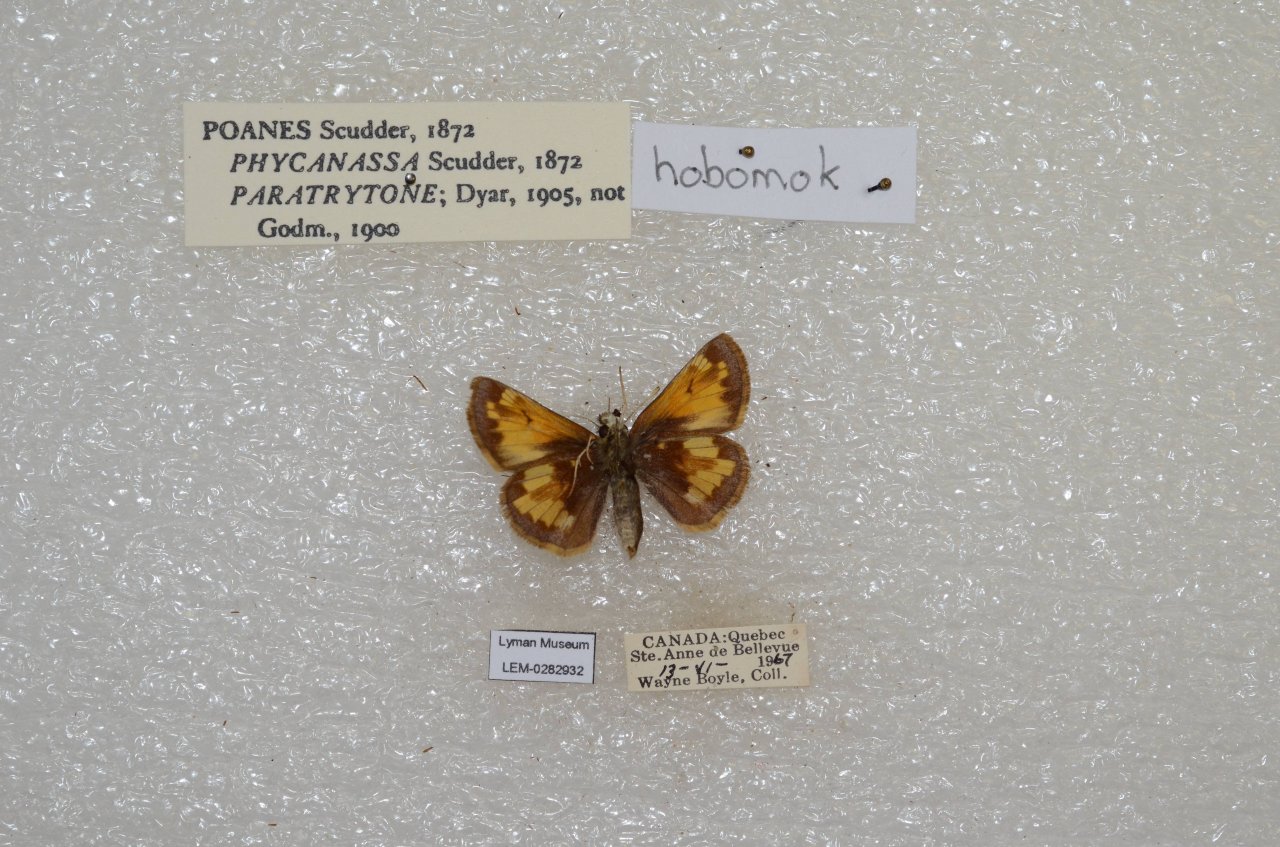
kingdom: Animalia
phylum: Arthropoda
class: Insecta
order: Lepidoptera
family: Hesperiidae
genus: Lon
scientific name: Lon hobomok
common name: Hobomok Skipper
